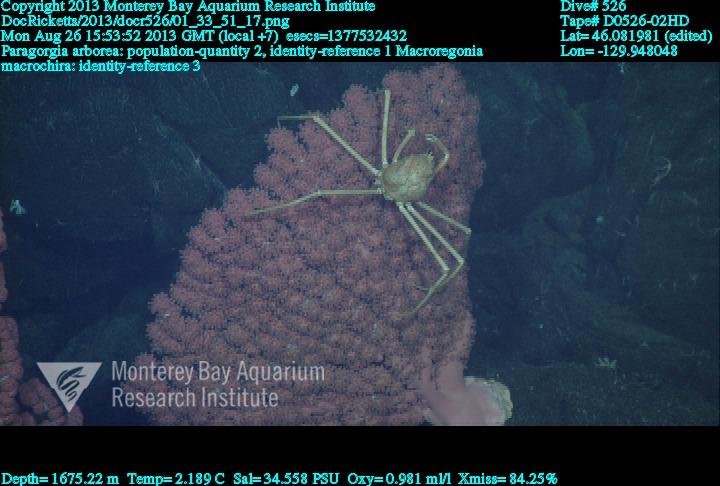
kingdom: Animalia
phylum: Cnidaria
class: Anthozoa
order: Scleralcyonacea
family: Coralliidae
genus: Paragorgia
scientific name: Paragorgia arborea
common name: Bubble gum coral
